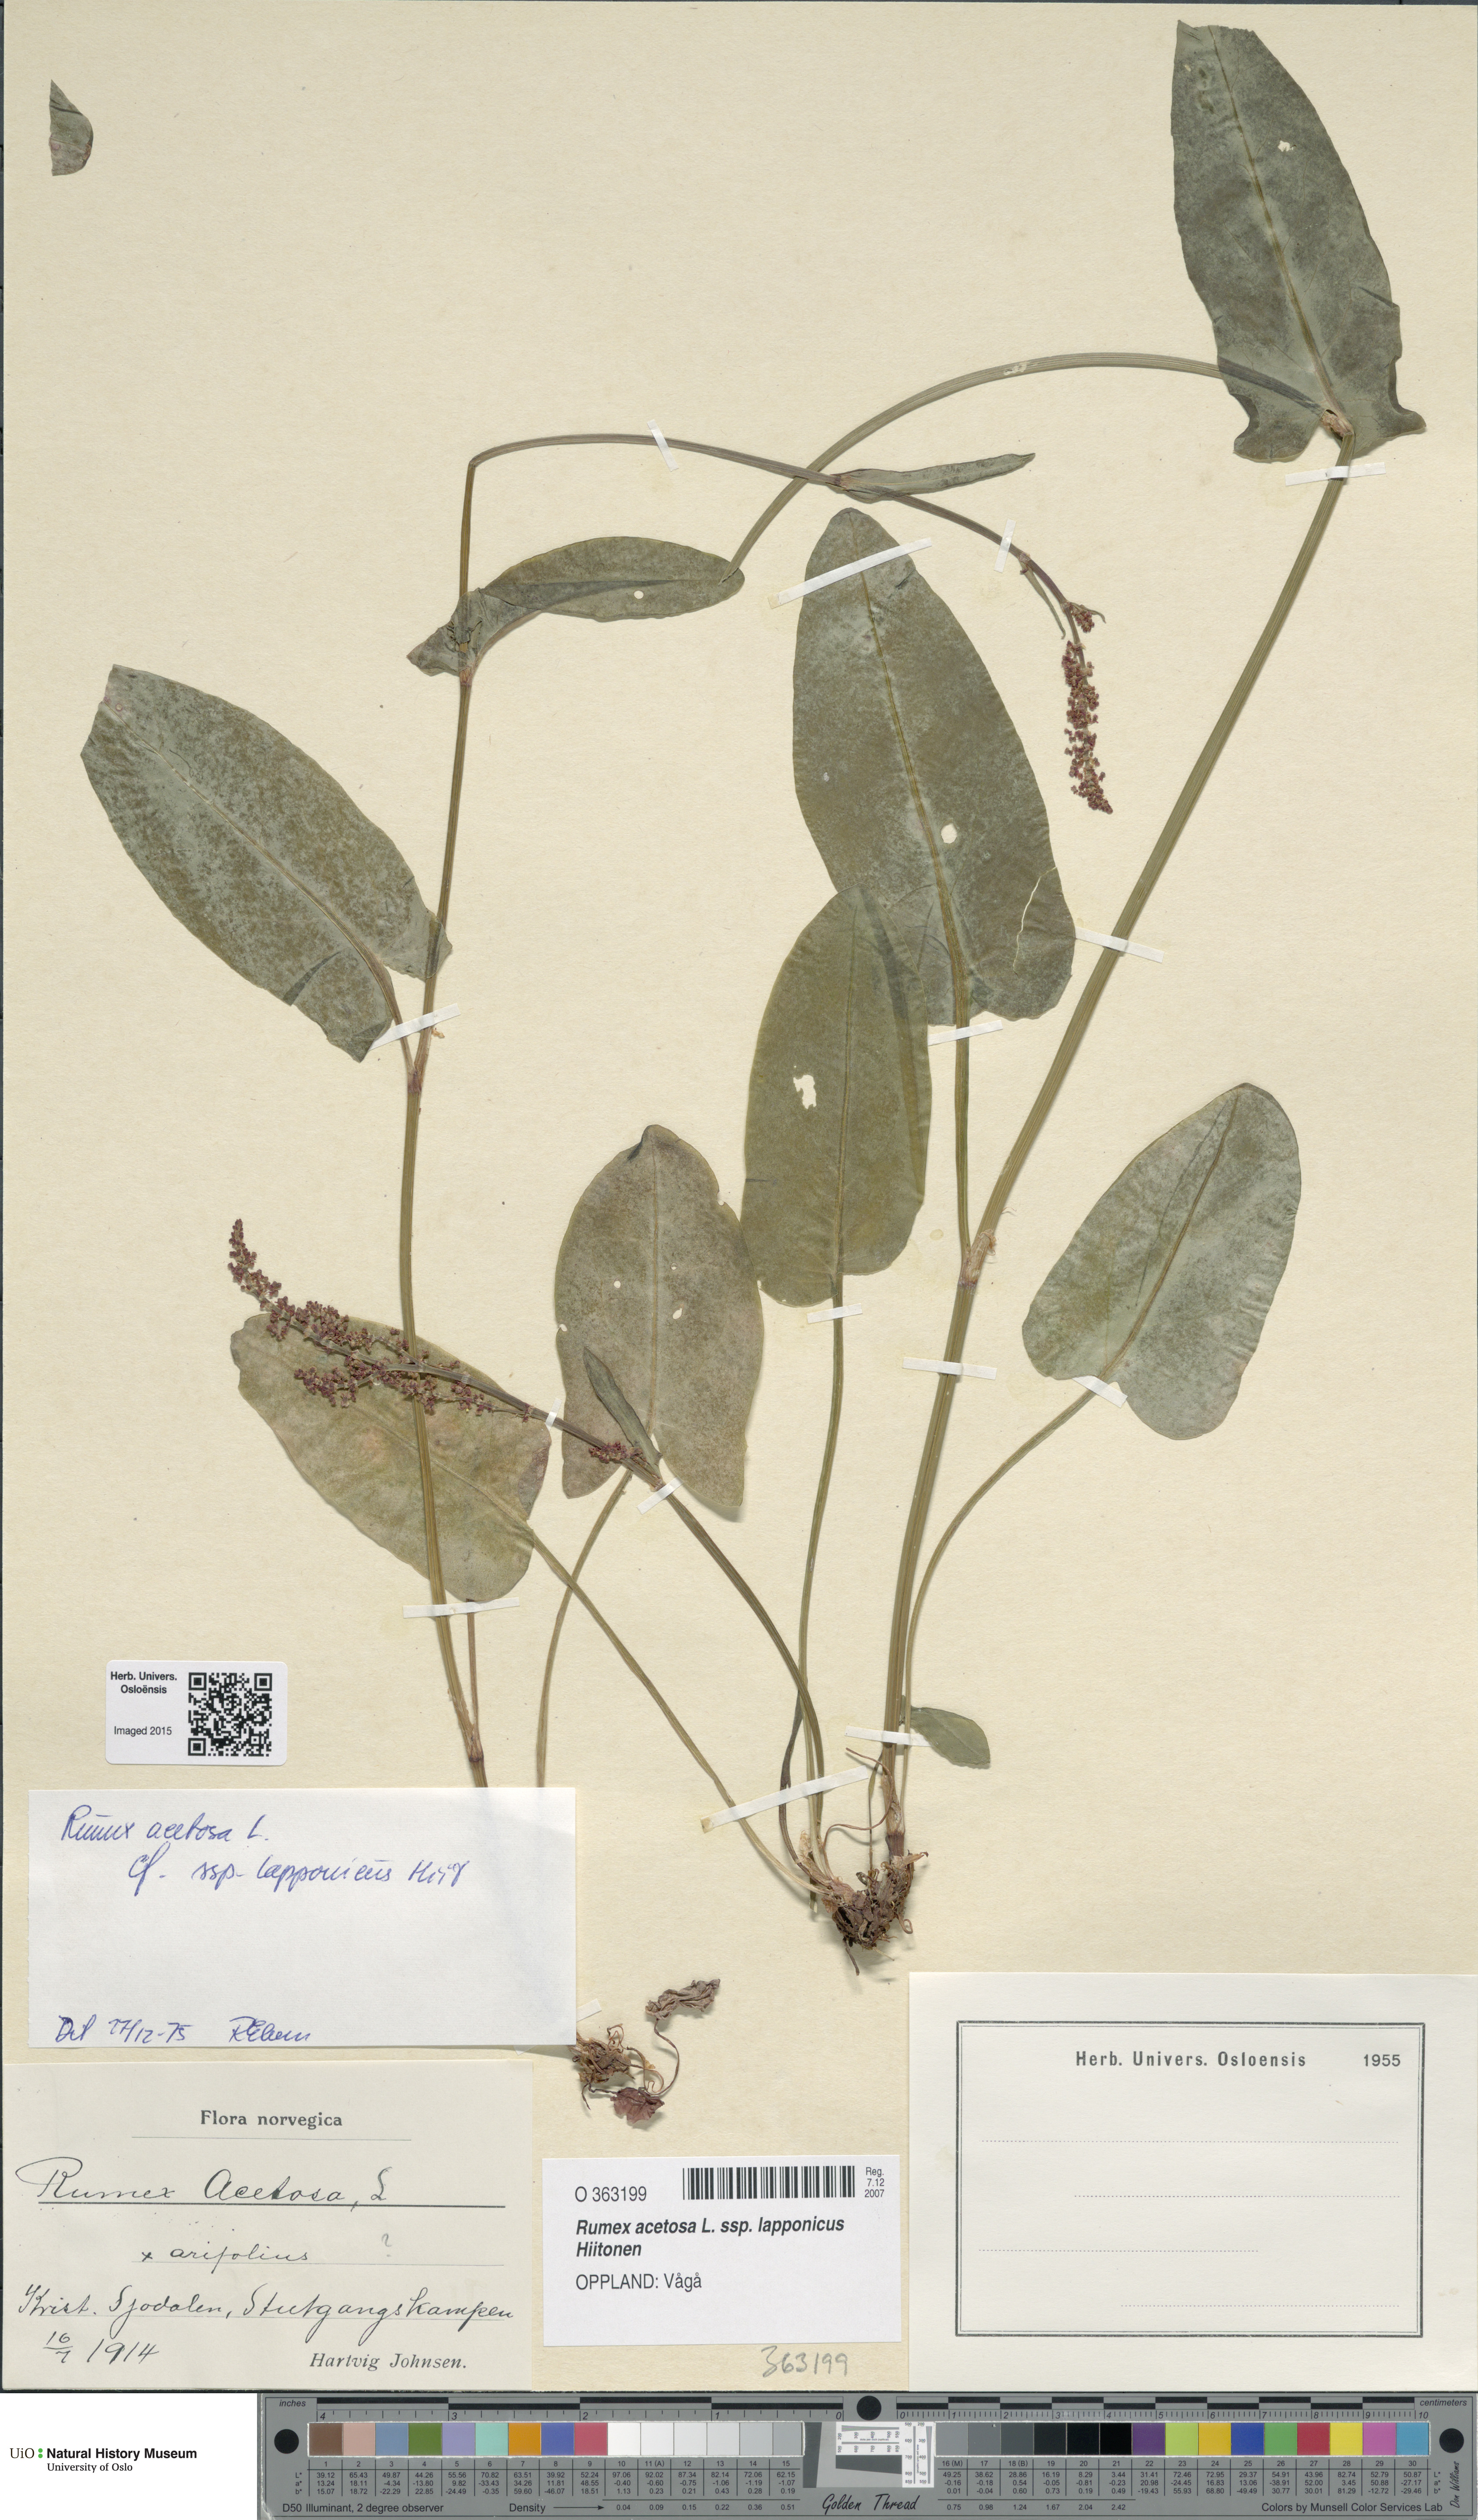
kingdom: Plantae
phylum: Tracheophyta
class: Magnoliopsida
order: Caryophyllales
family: Polygonaceae
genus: Rumex
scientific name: Rumex lapponicus
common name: Lapland mountain sorrel
